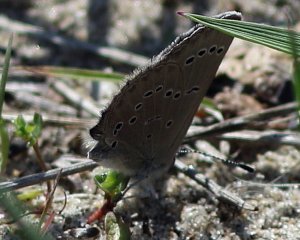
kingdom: Animalia
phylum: Arthropoda
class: Insecta
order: Lepidoptera
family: Lycaenidae
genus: Glaucopsyche
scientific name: Glaucopsyche lygdamus
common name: Silvery Blue
